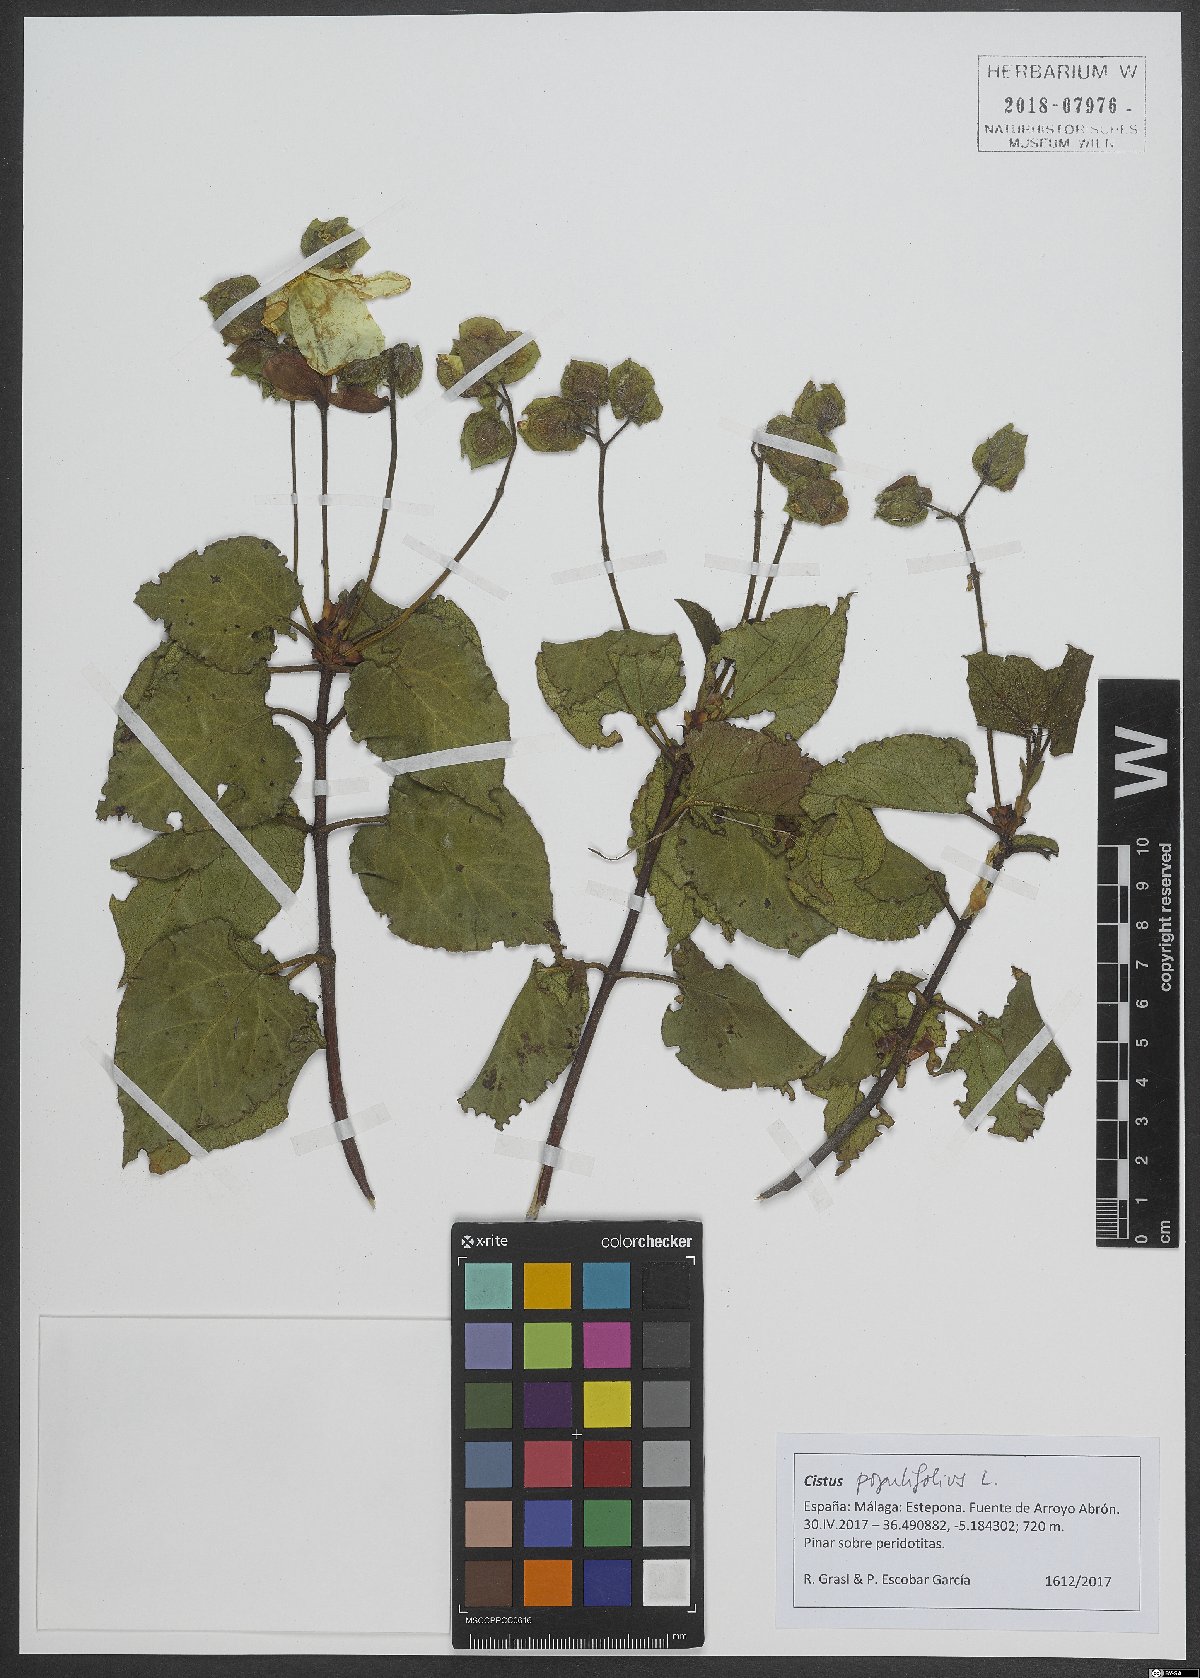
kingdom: Plantae
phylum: Tracheophyta
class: Magnoliopsida
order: Malvales
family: Cistaceae
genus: Cistus
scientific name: Cistus populifolius
